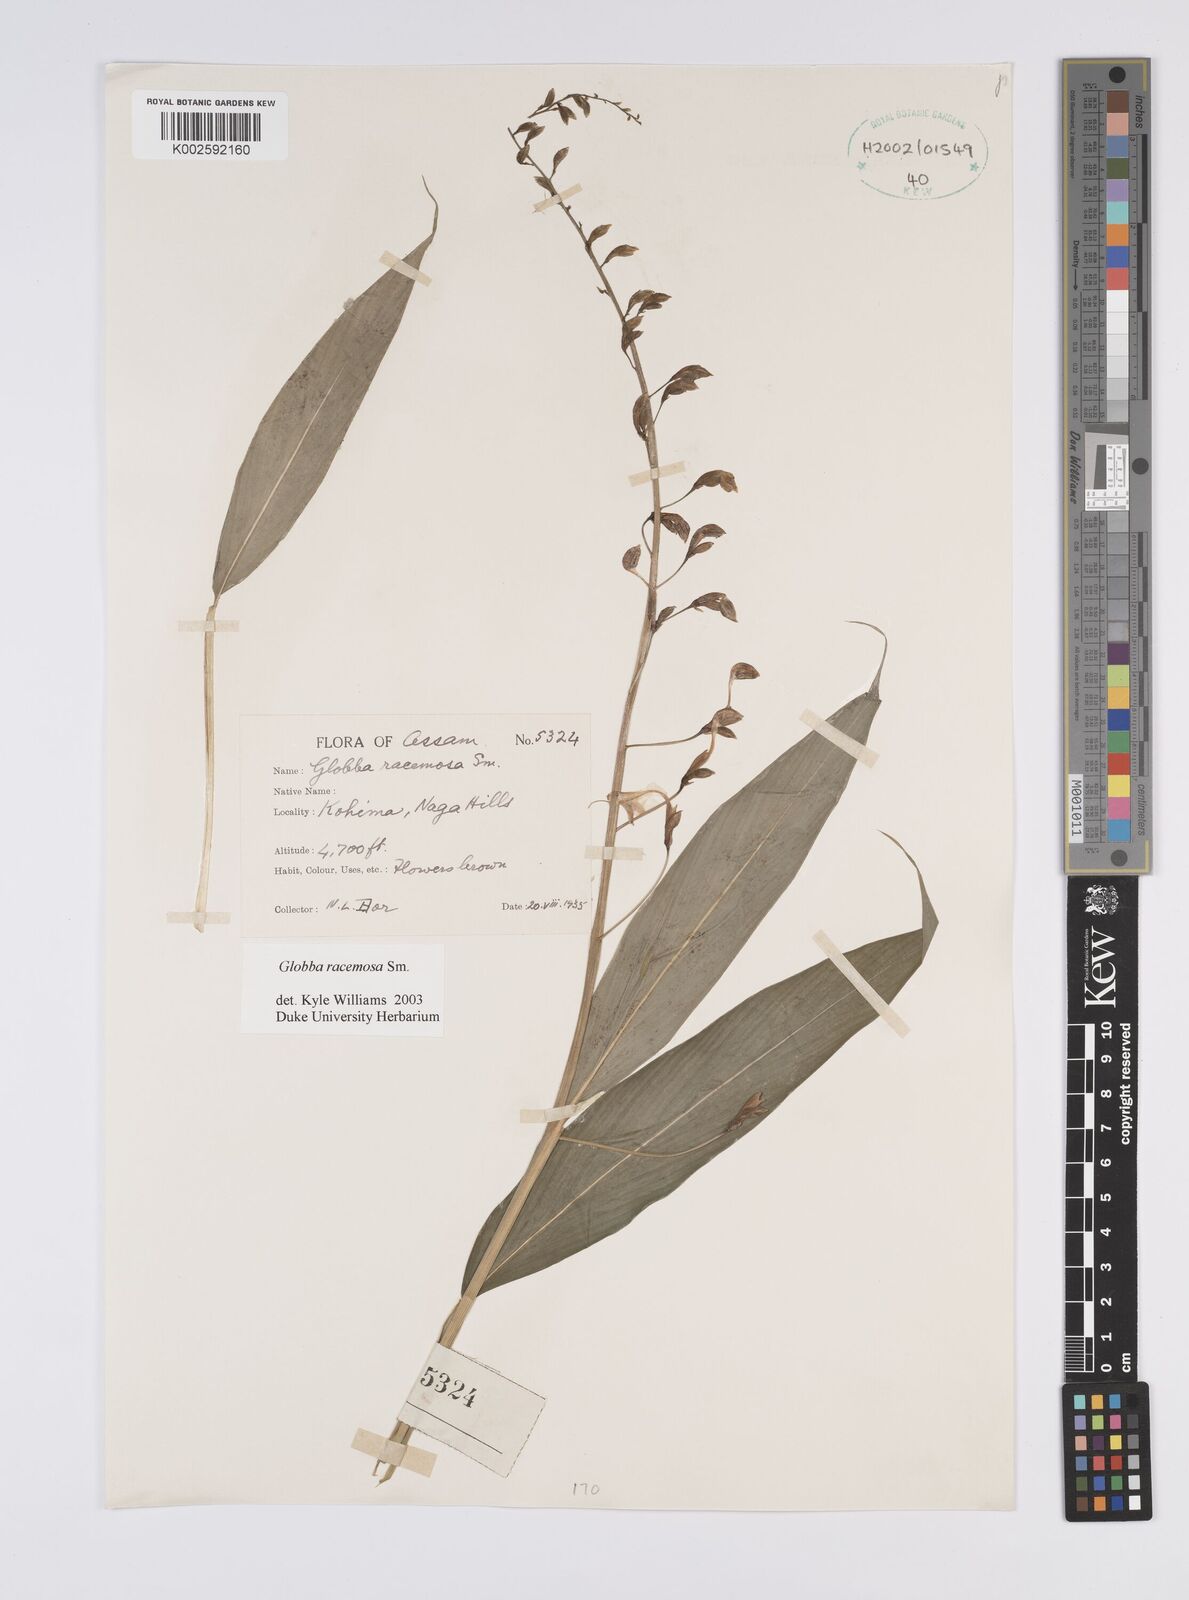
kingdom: Plantae
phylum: Tracheophyta
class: Liliopsida
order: Zingiberales
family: Zingiberaceae
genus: Globba
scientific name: Globba racemosa
